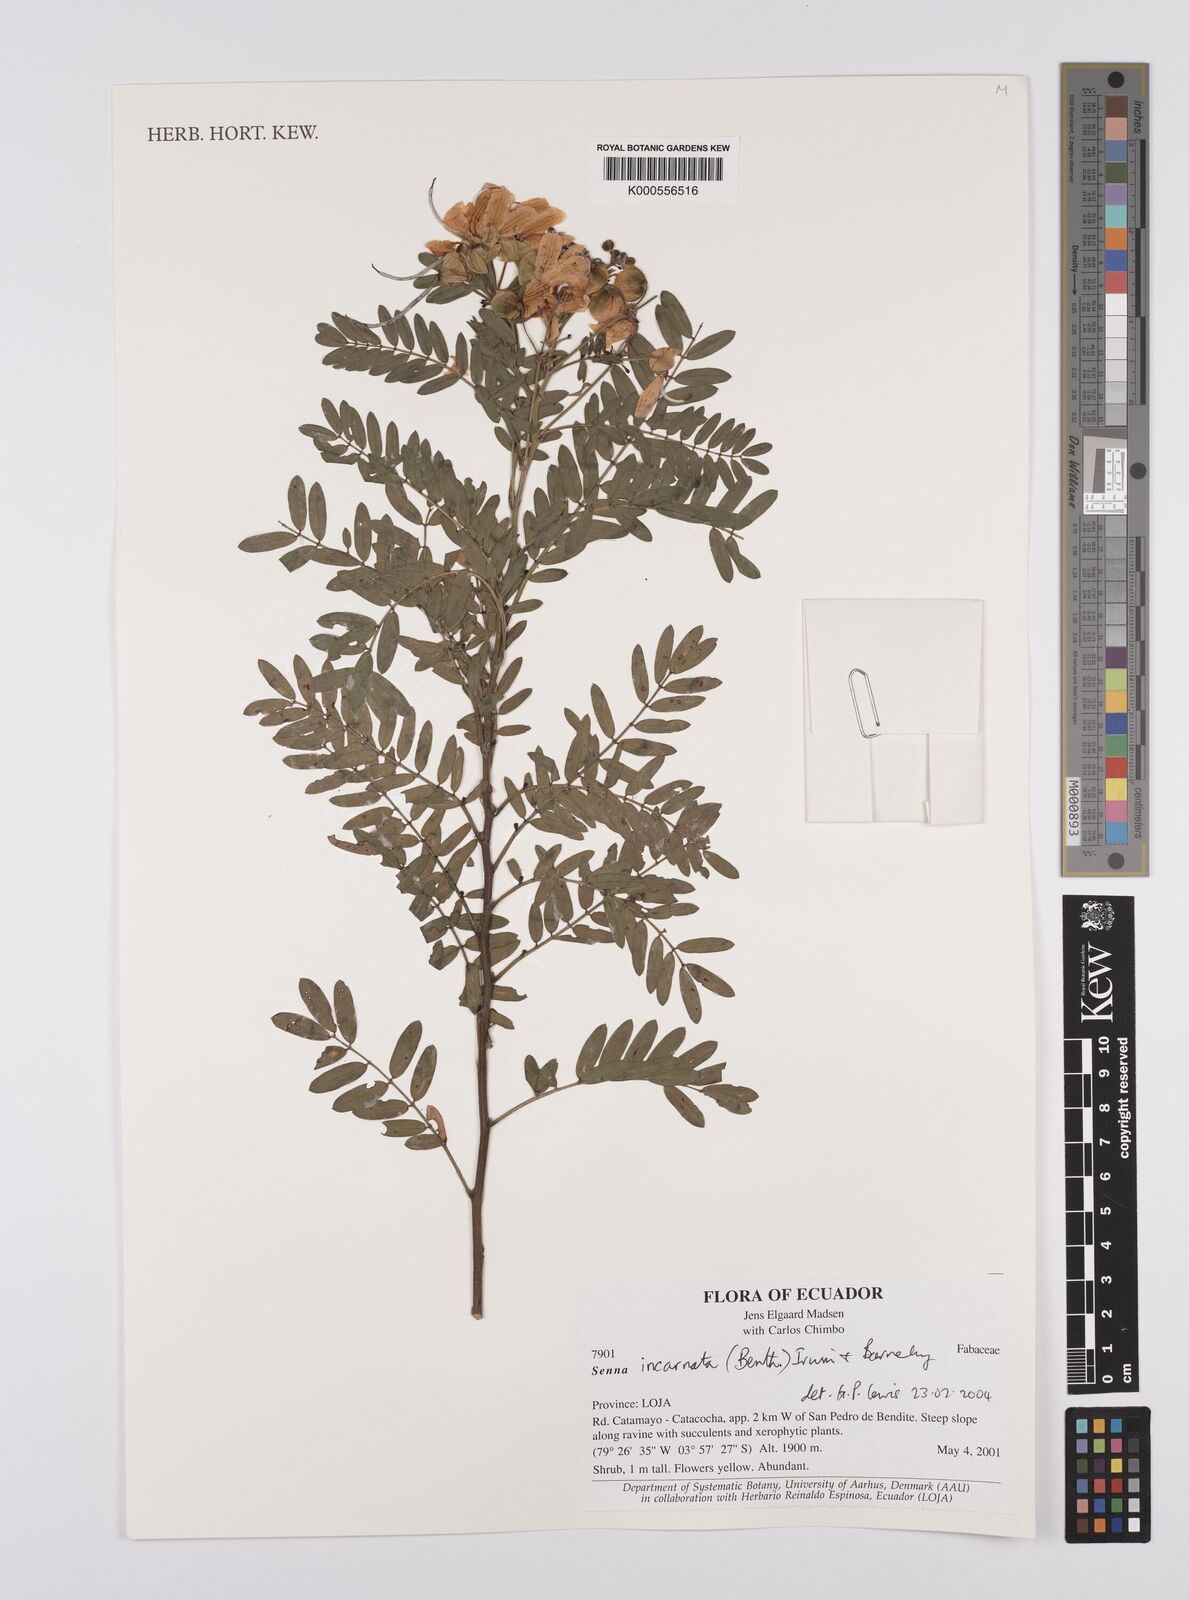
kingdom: Plantae
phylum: Tracheophyta
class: Magnoliopsida
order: Fabales
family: Fabaceae
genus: Senna
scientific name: Senna incarnata
